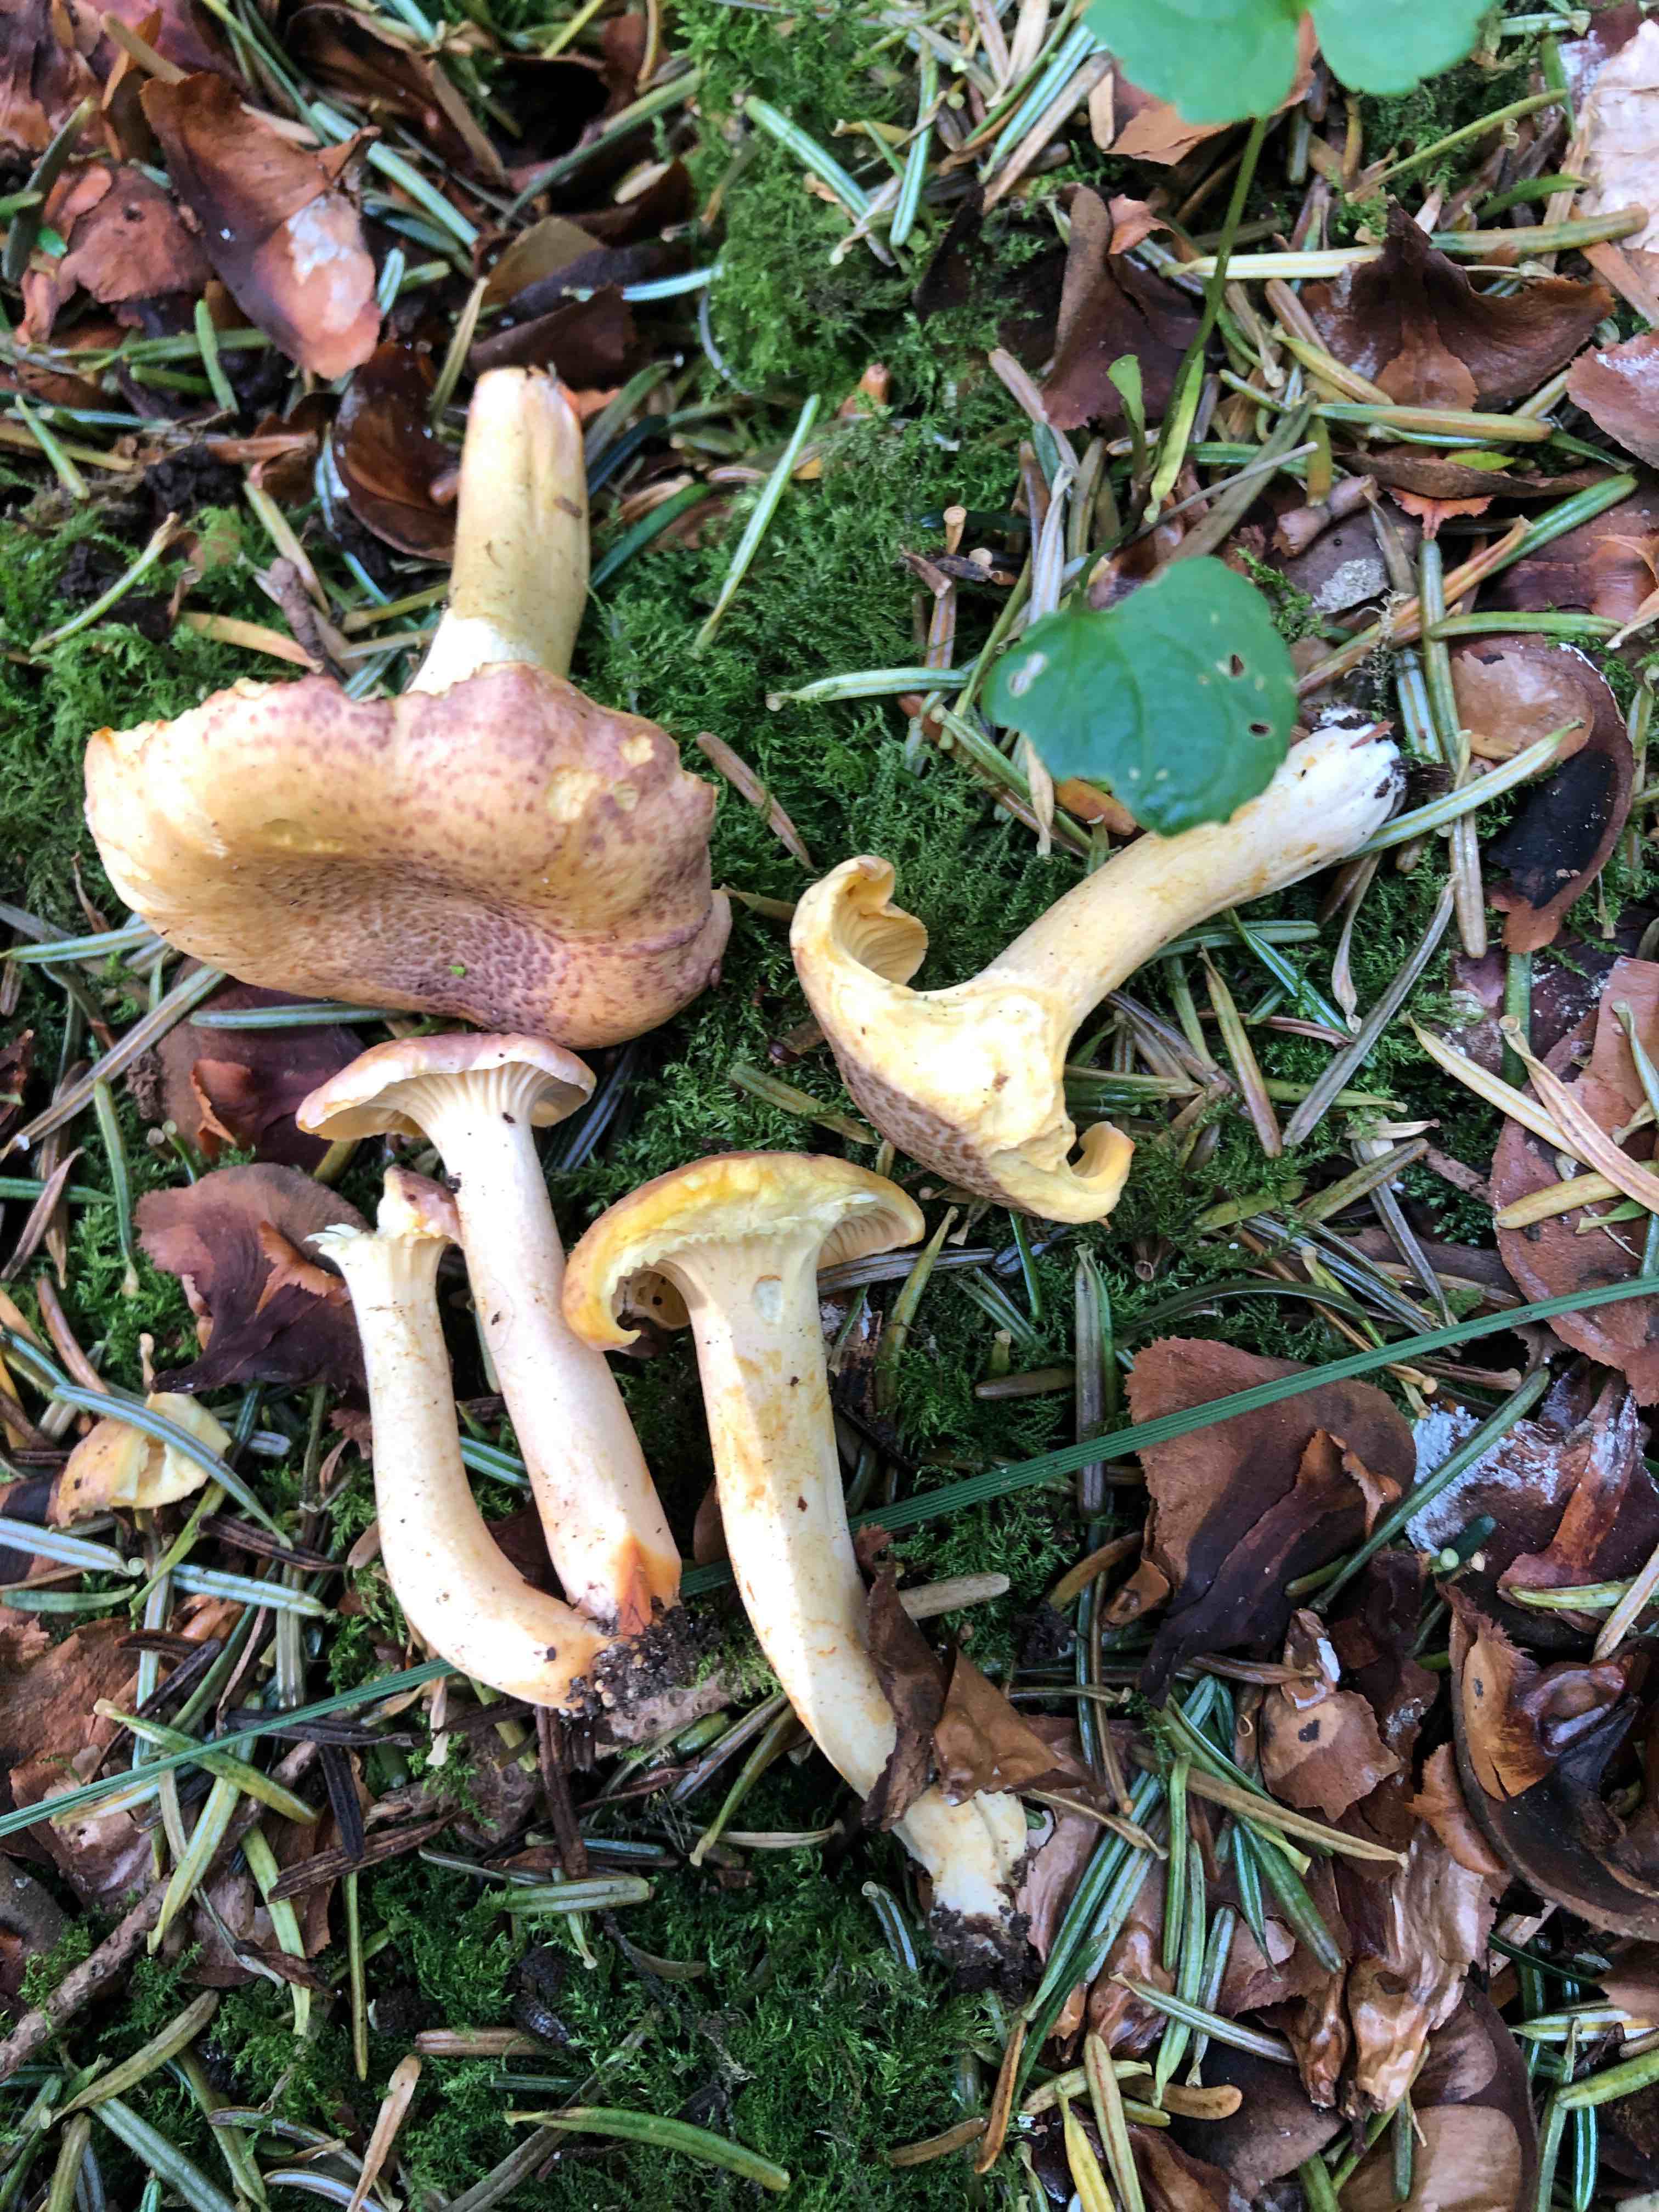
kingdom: Fungi
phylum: Basidiomycota
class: Agaricomycetes
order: Cantharellales
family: Hydnaceae
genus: Cantharellus
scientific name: Cantharellus amethysteus
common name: ametyst-kantarel
